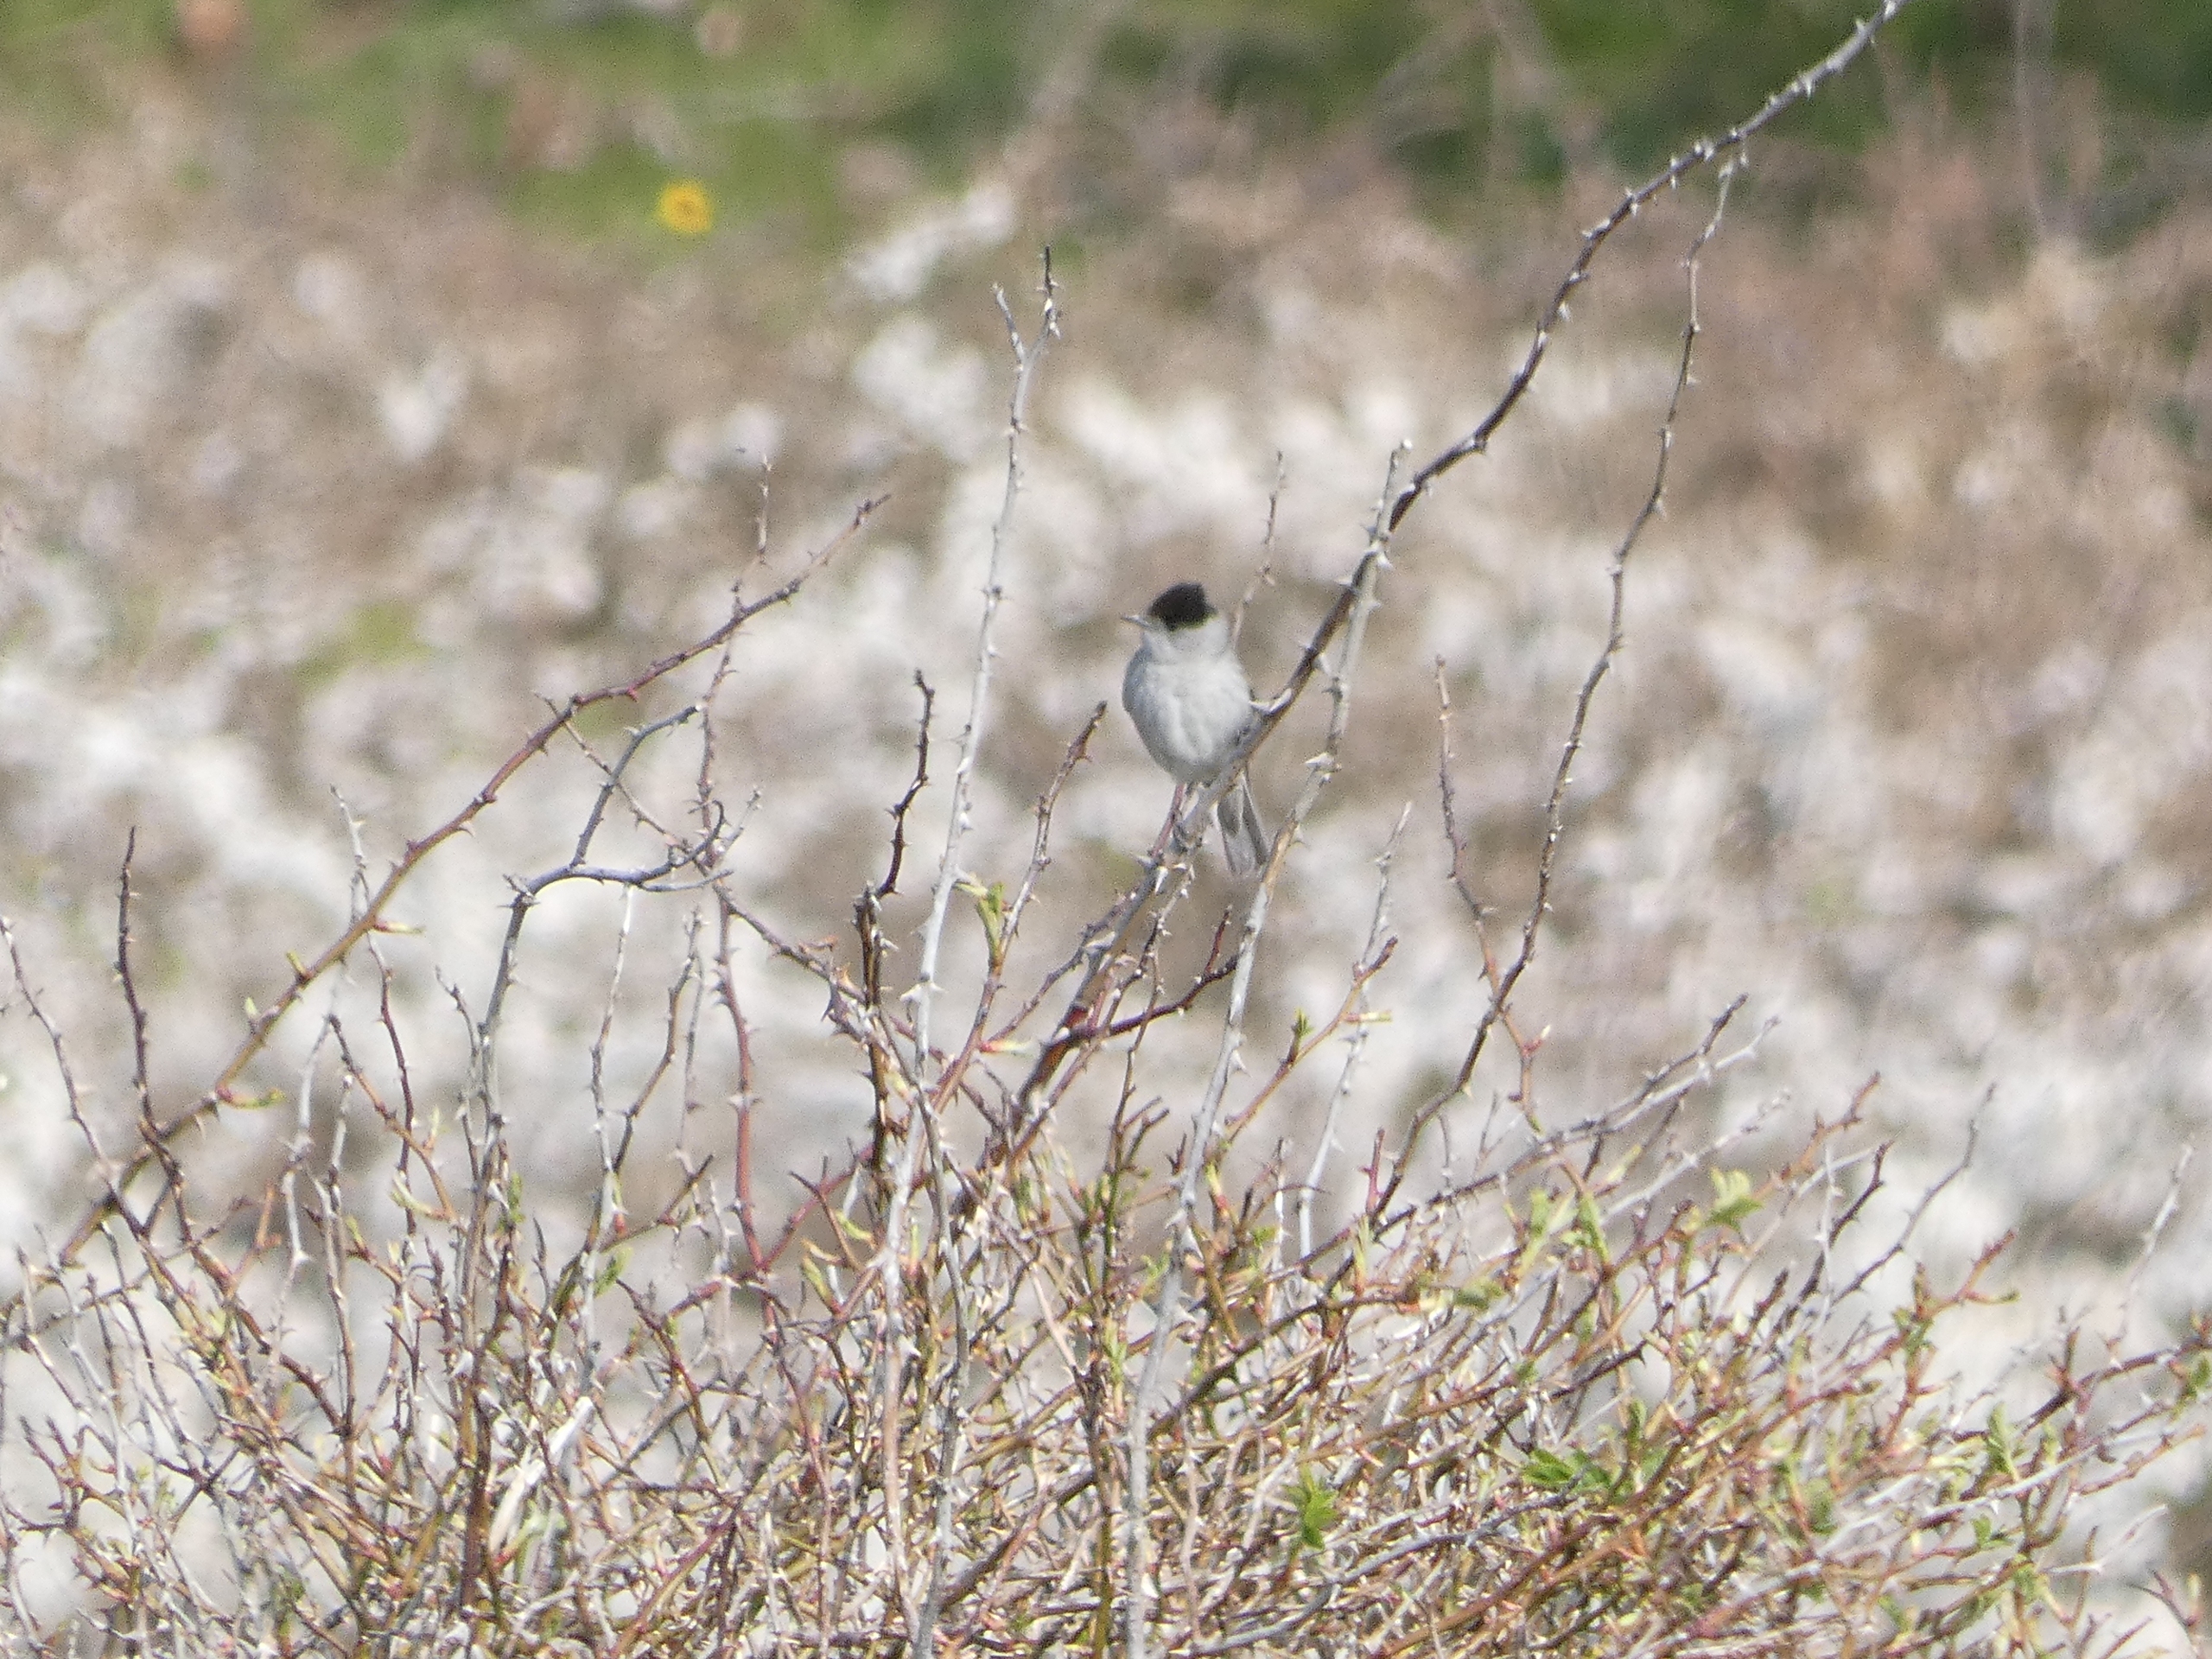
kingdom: Animalia
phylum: Chordata
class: Aves
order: Passeriformes
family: Sylviidae
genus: Sylvia
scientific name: Sylvia atricapilla
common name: Munk
